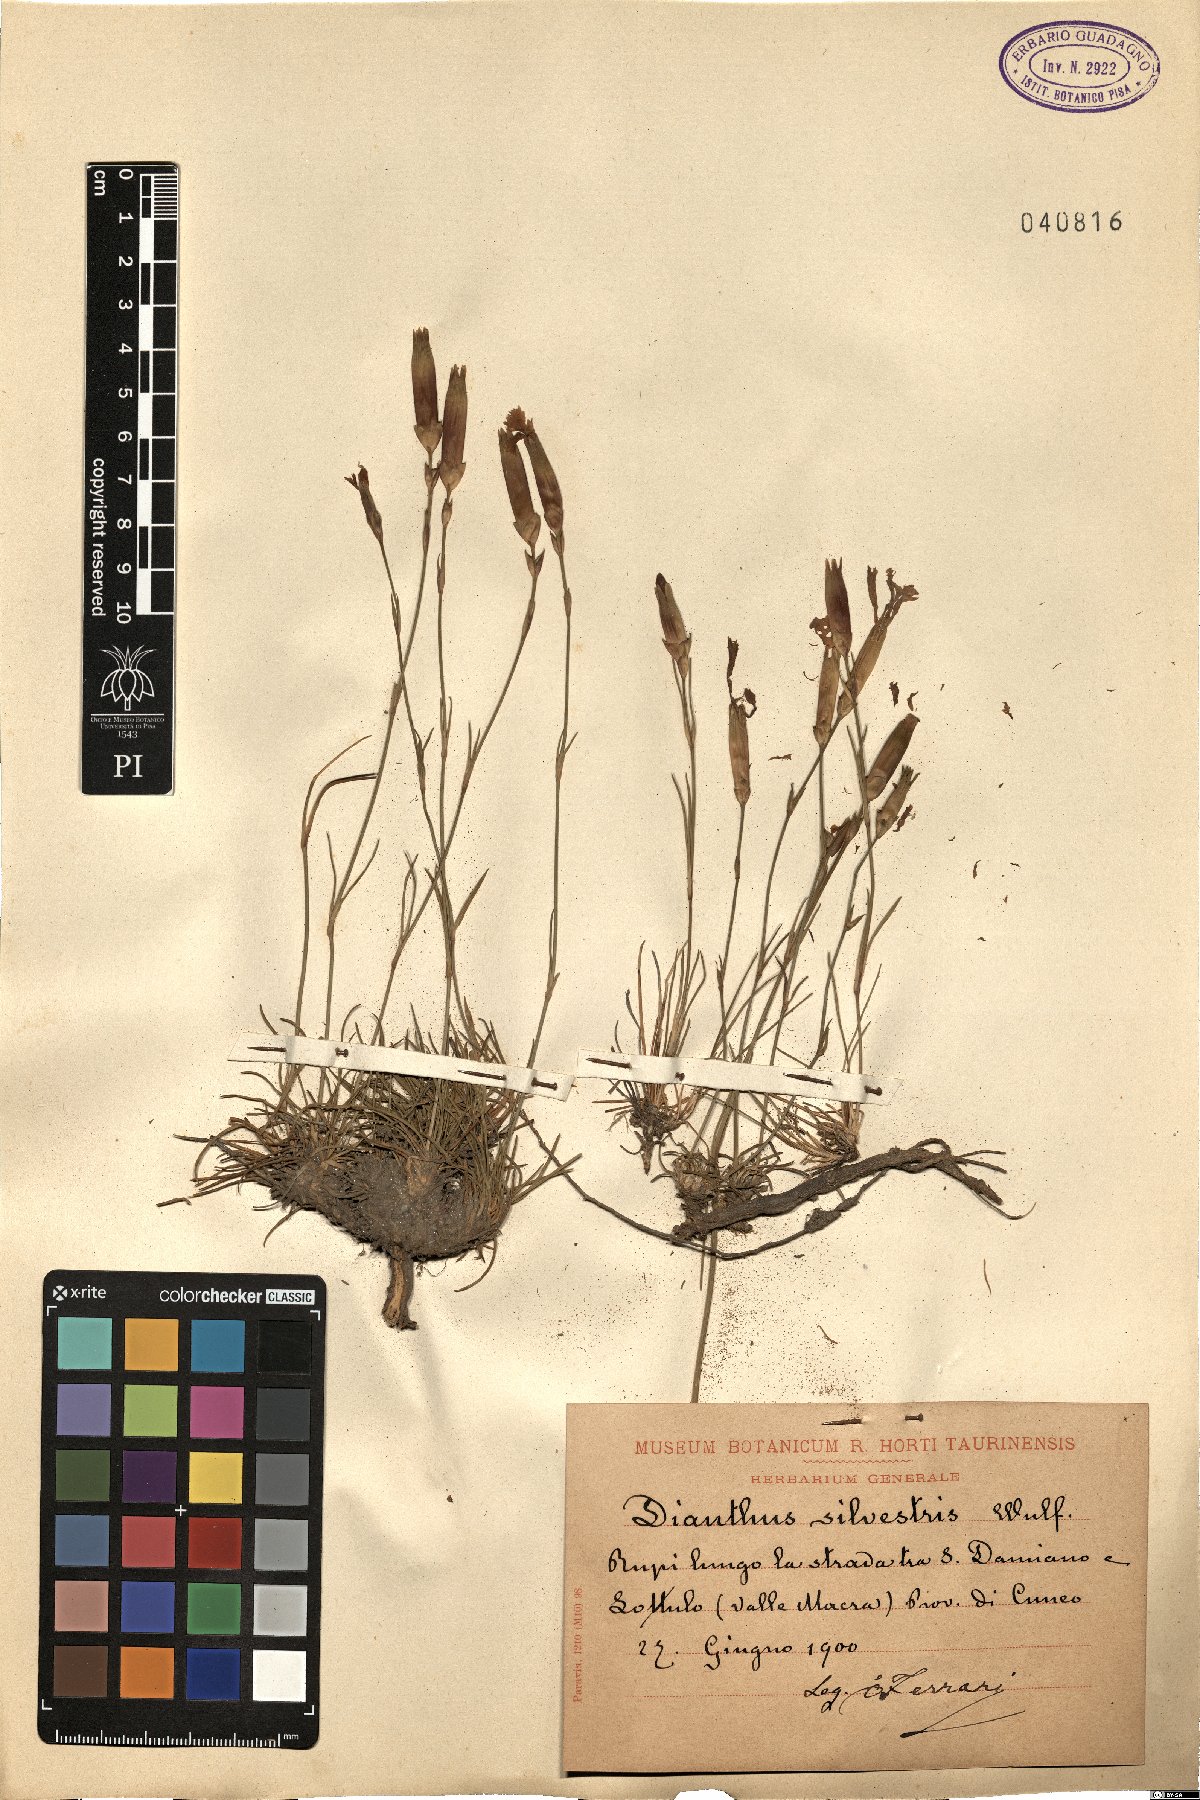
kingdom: Plantae
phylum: Tracheophyta
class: Magnoliopsida
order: Caryophyllales
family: Caryophyllaceae
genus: Dianthus
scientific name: Dianthus sylvestris
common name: Wood pink
